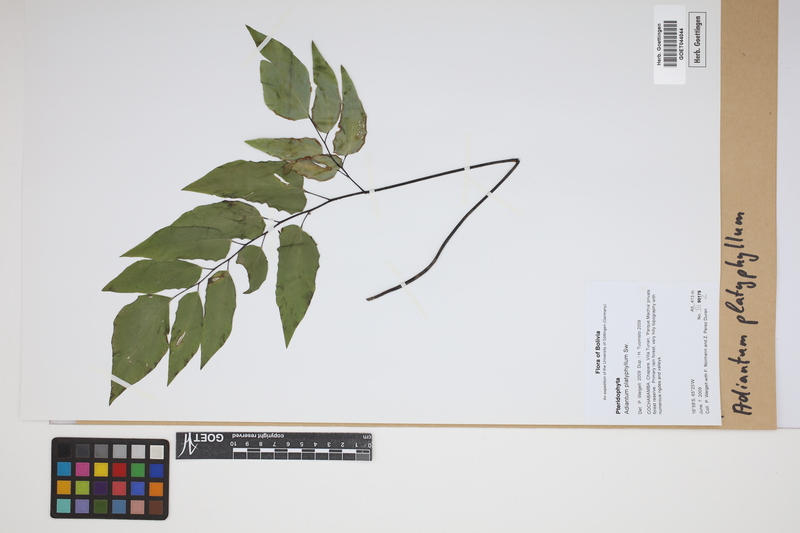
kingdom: Plantae
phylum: Tracheophyta
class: Polypodiopsida
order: Polypodiales
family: Pteridaceae
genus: Adiantum
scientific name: Adiantum platyphyllum
